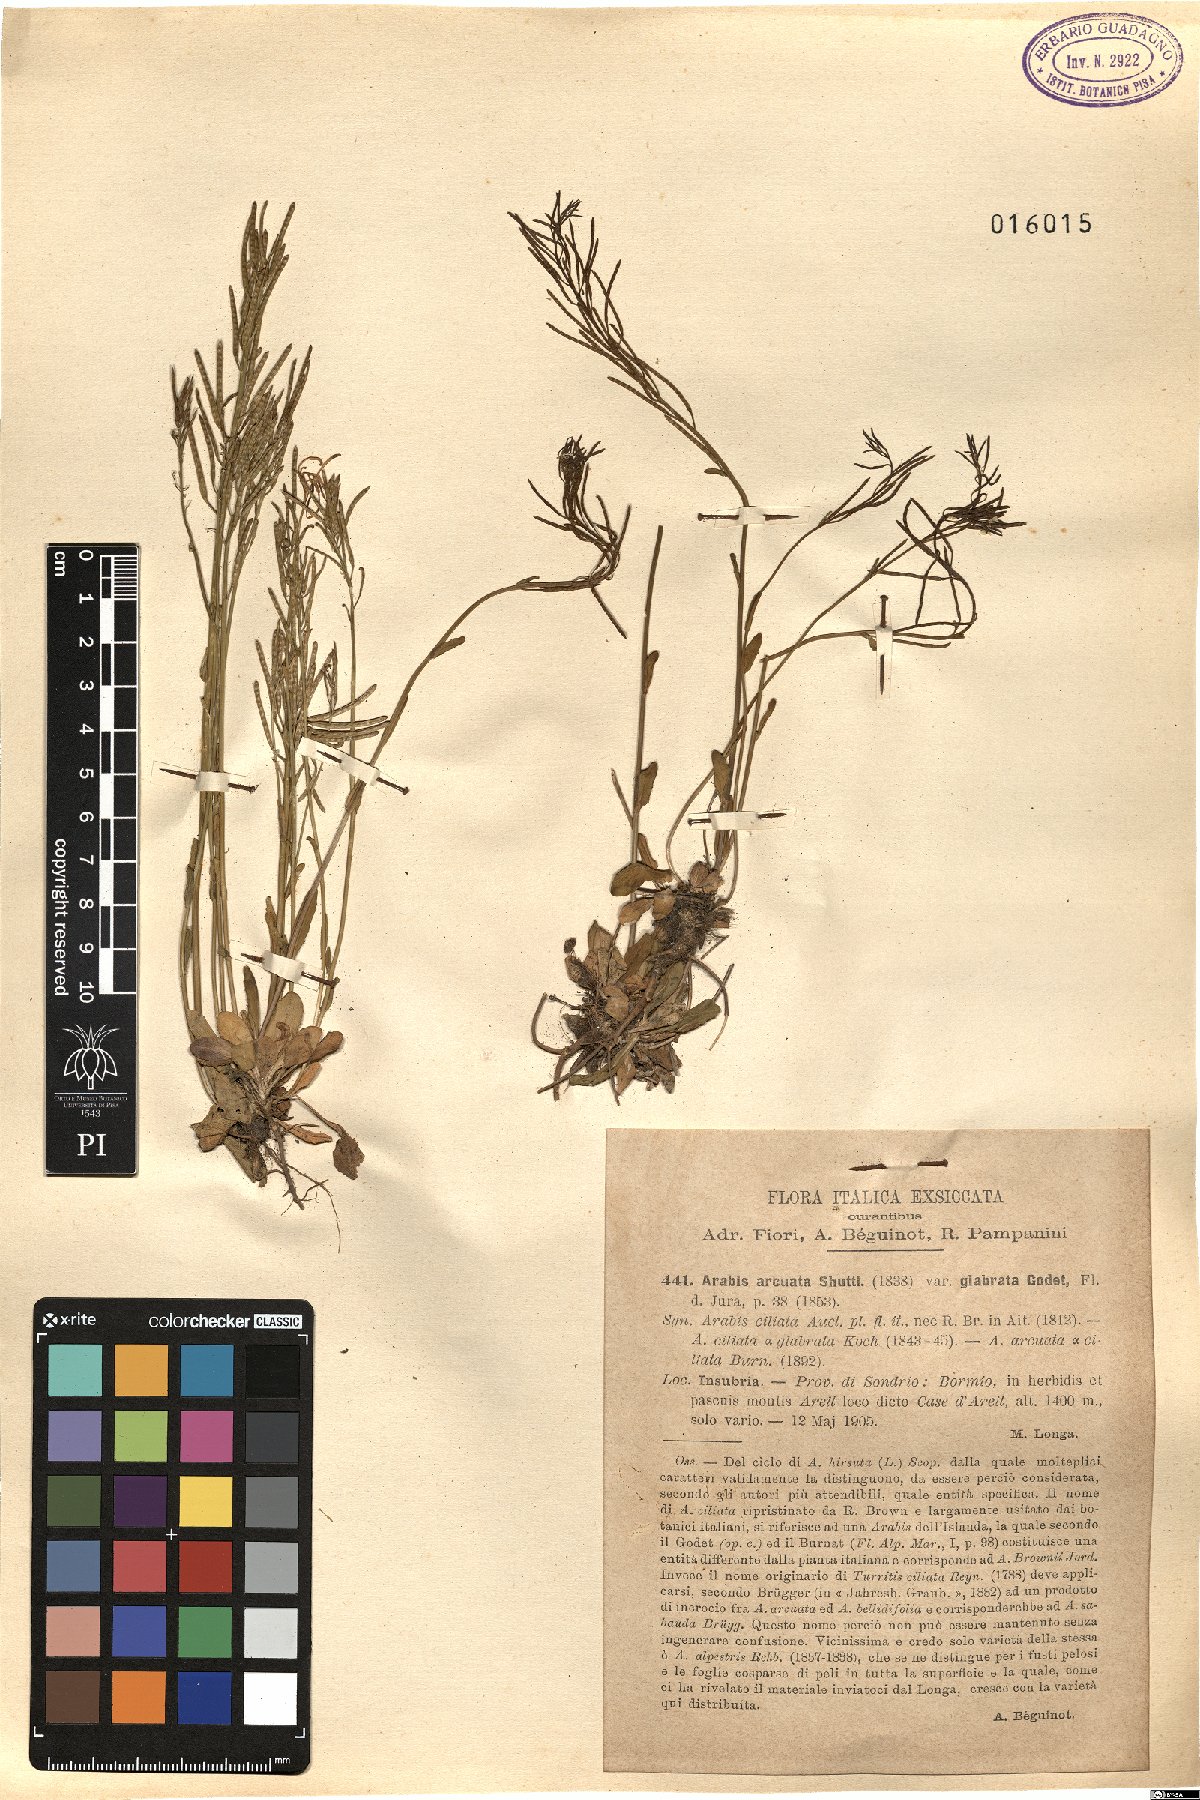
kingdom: Plantae
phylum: Tracheophyta
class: Magnoliopsida
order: Brassicales
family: Brassicaceae
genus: Arabis
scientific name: Arabis ciliata
